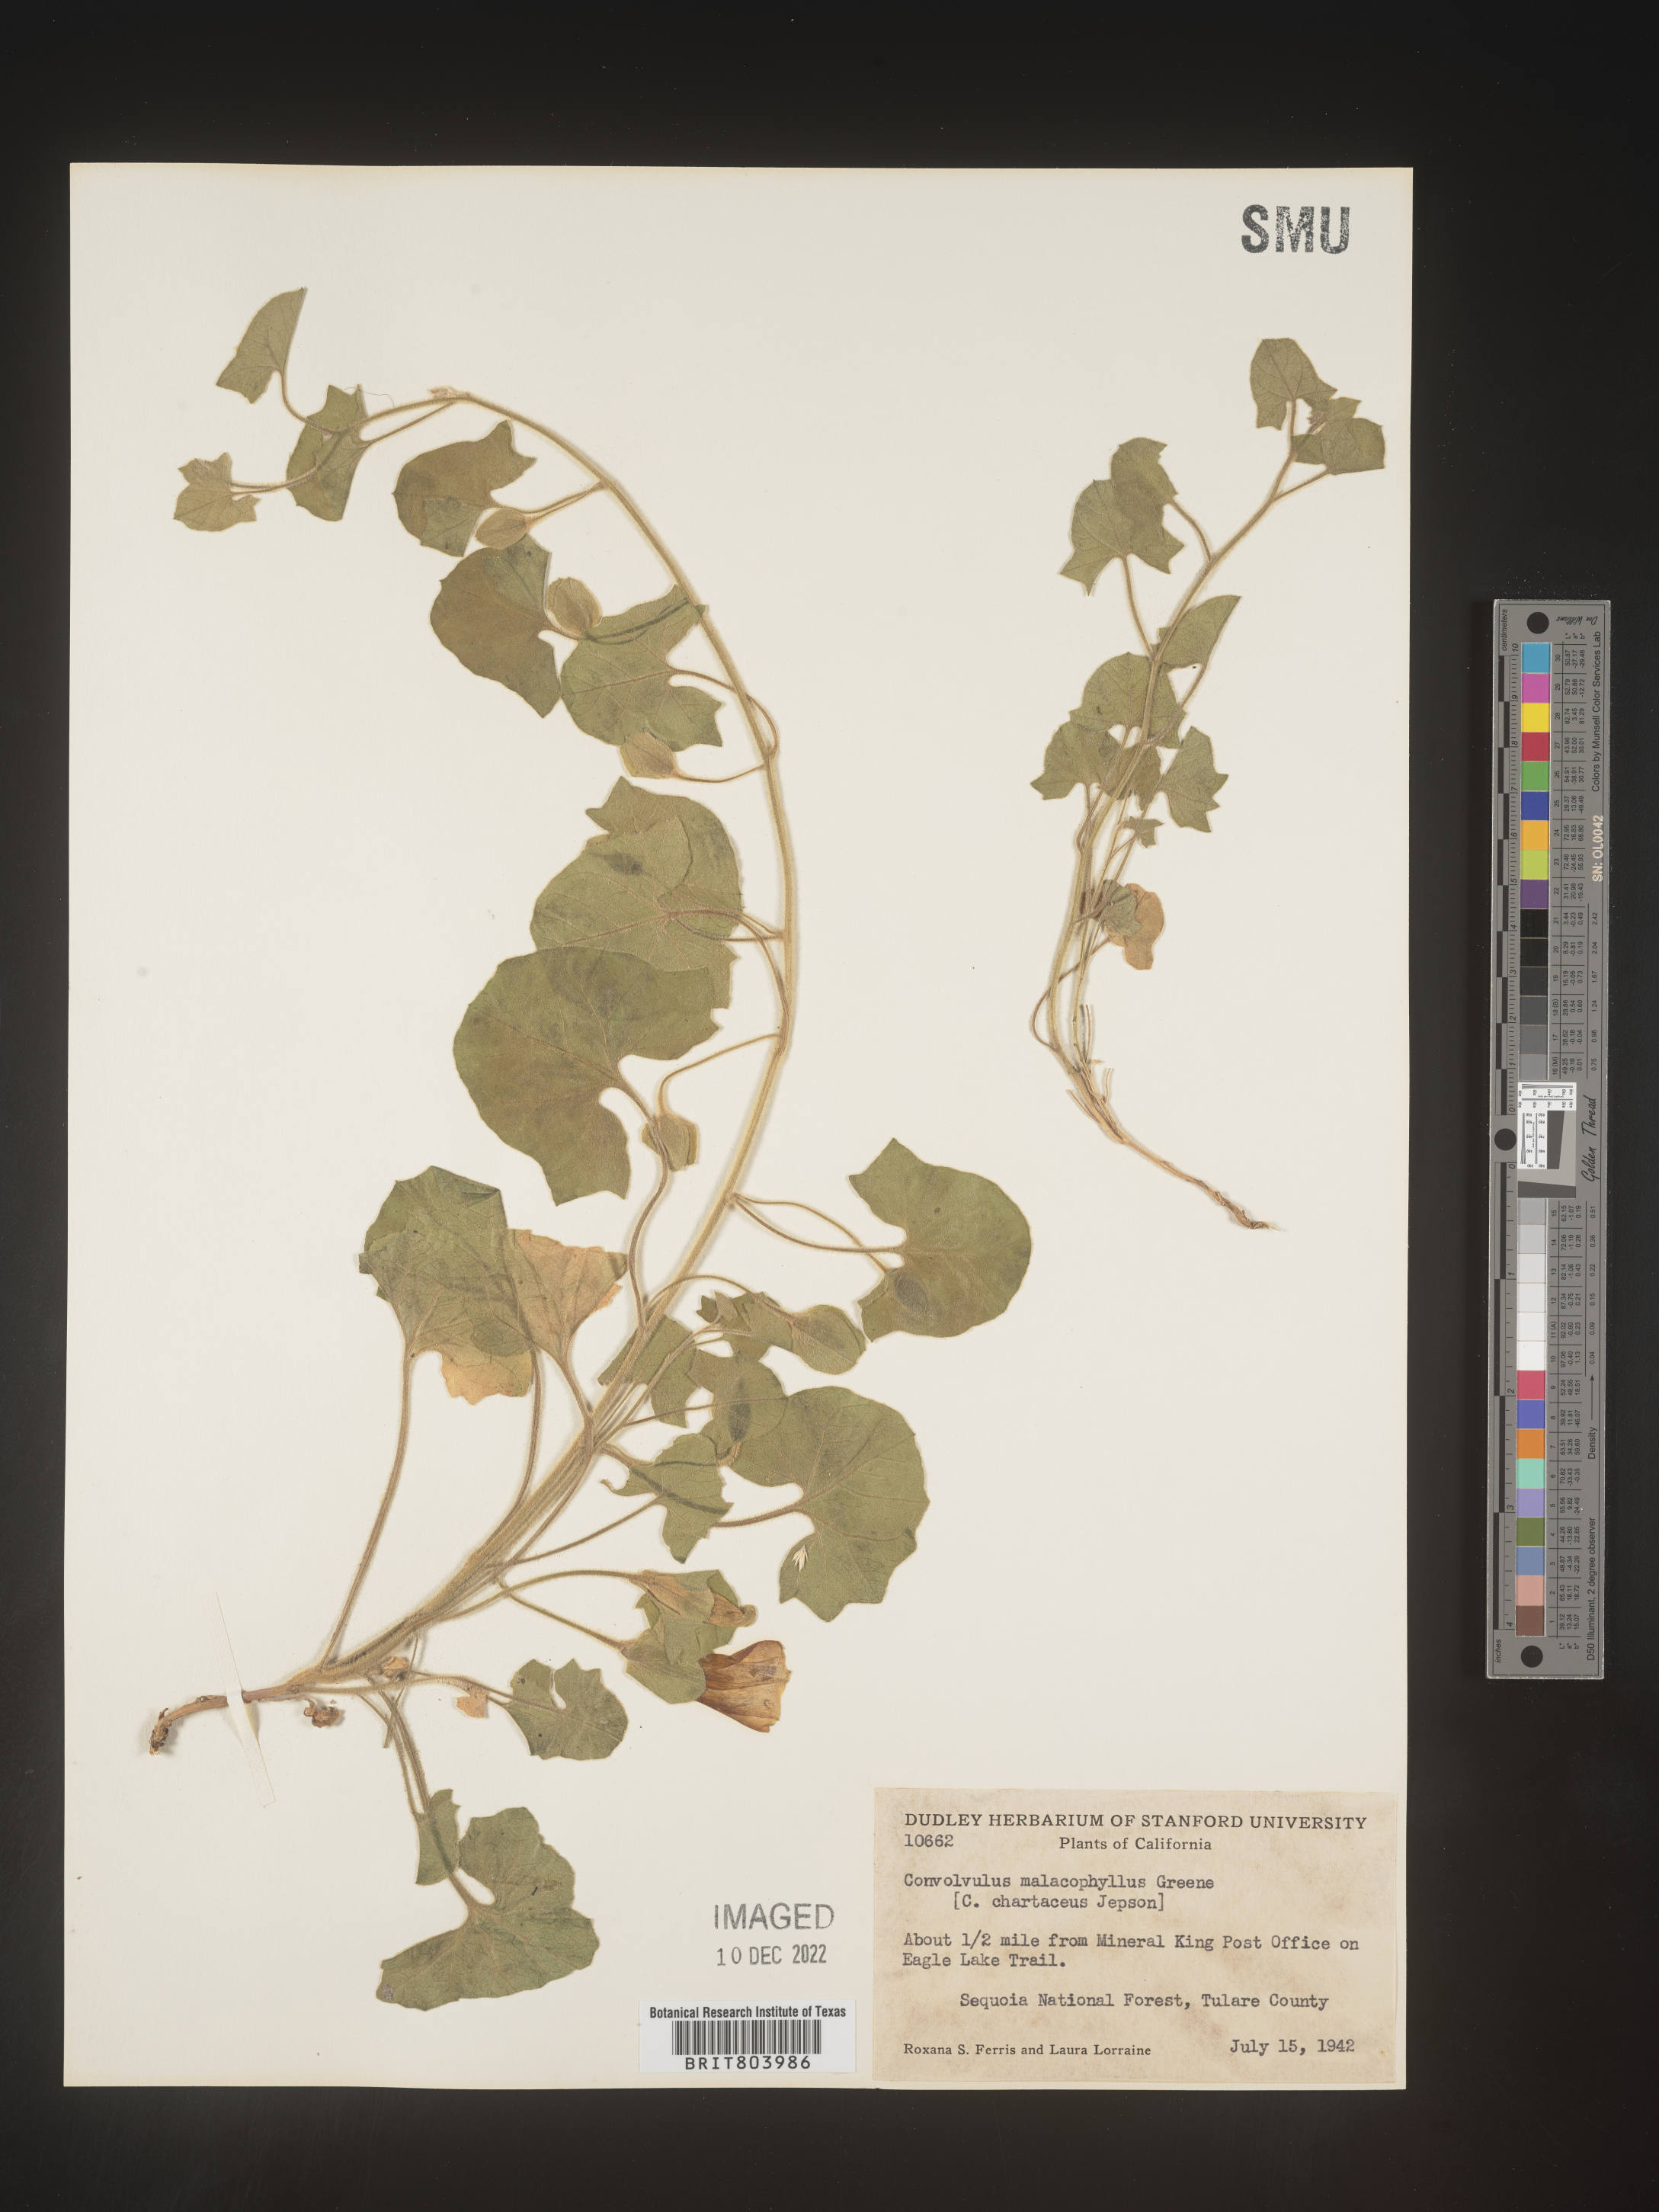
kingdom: Plantae
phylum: Tracheophyta
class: Magnoliopsida
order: Solanales
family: Convolvulaceae
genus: Calystegia
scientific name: Calystegia
